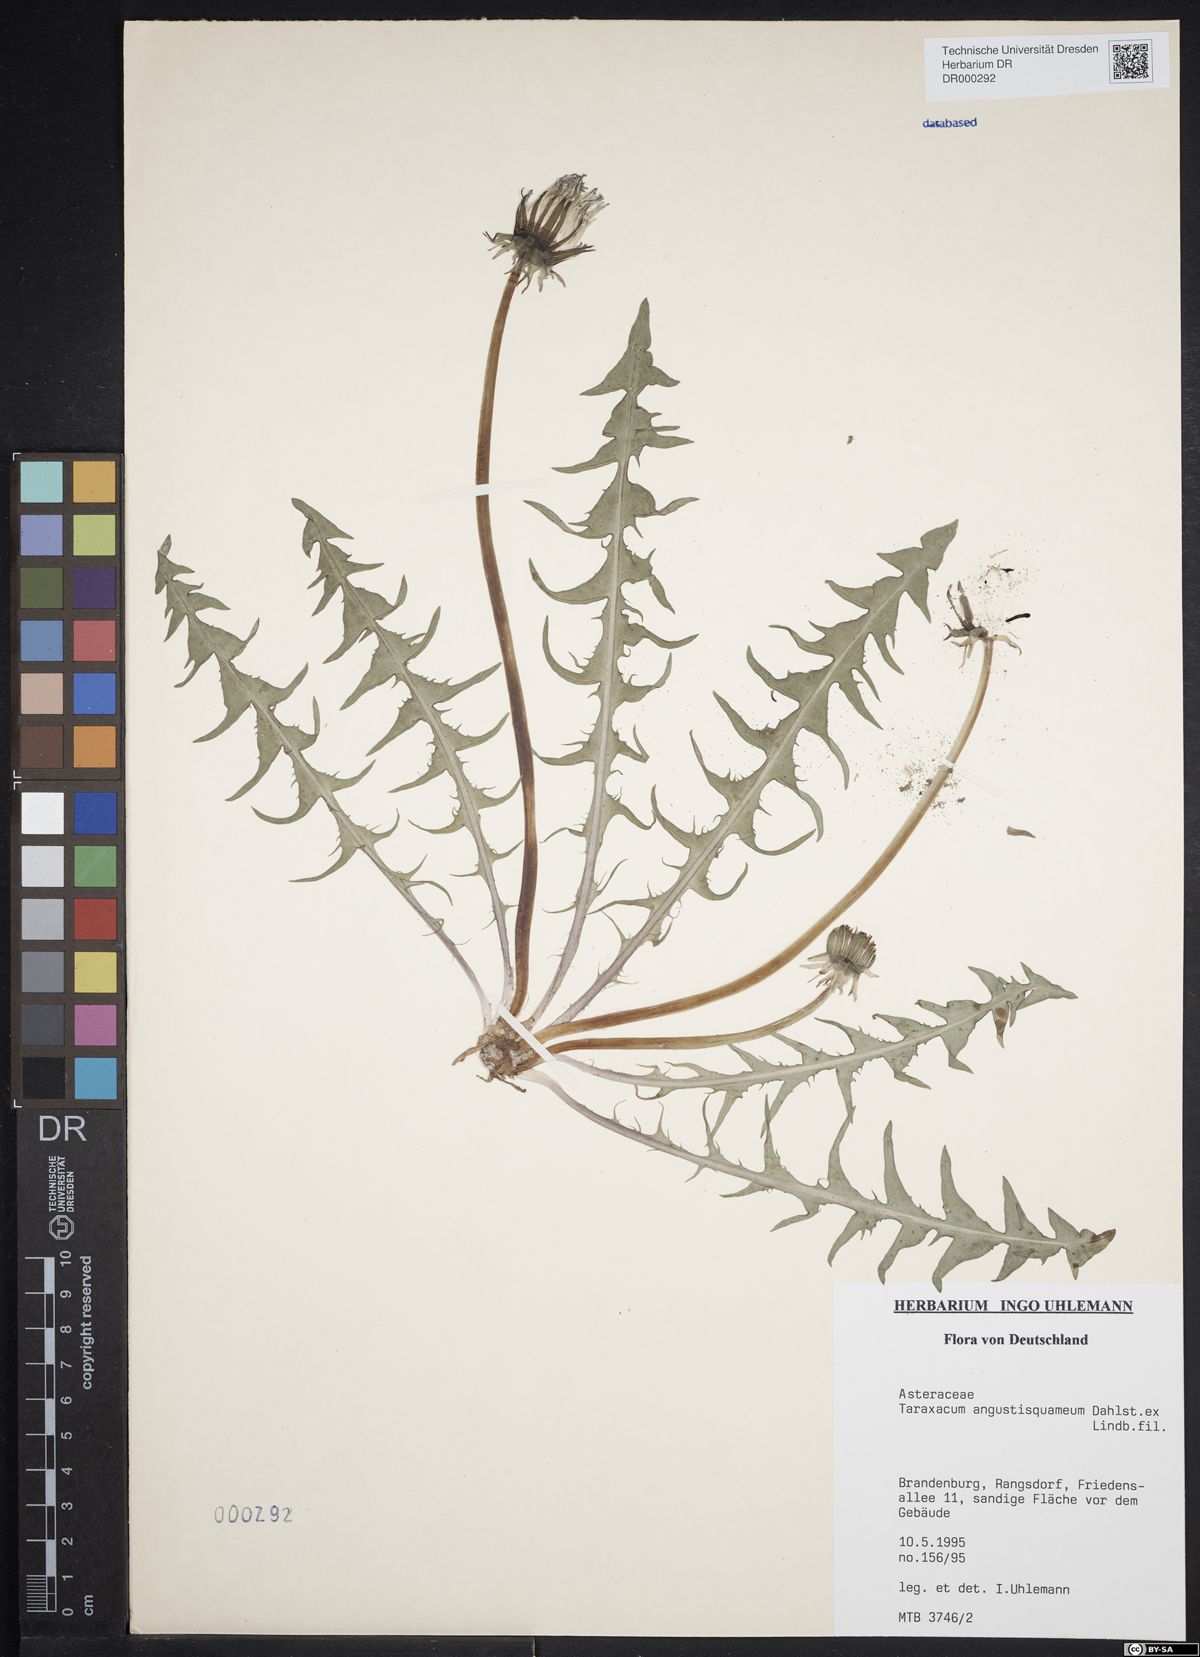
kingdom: Plantae
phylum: Tracheophyta
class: Magnoliopsida
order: Asterales
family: Asteraceae
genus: Taraxacum
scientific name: Taraxacum angustisquameum
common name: Multilobed dandelion
